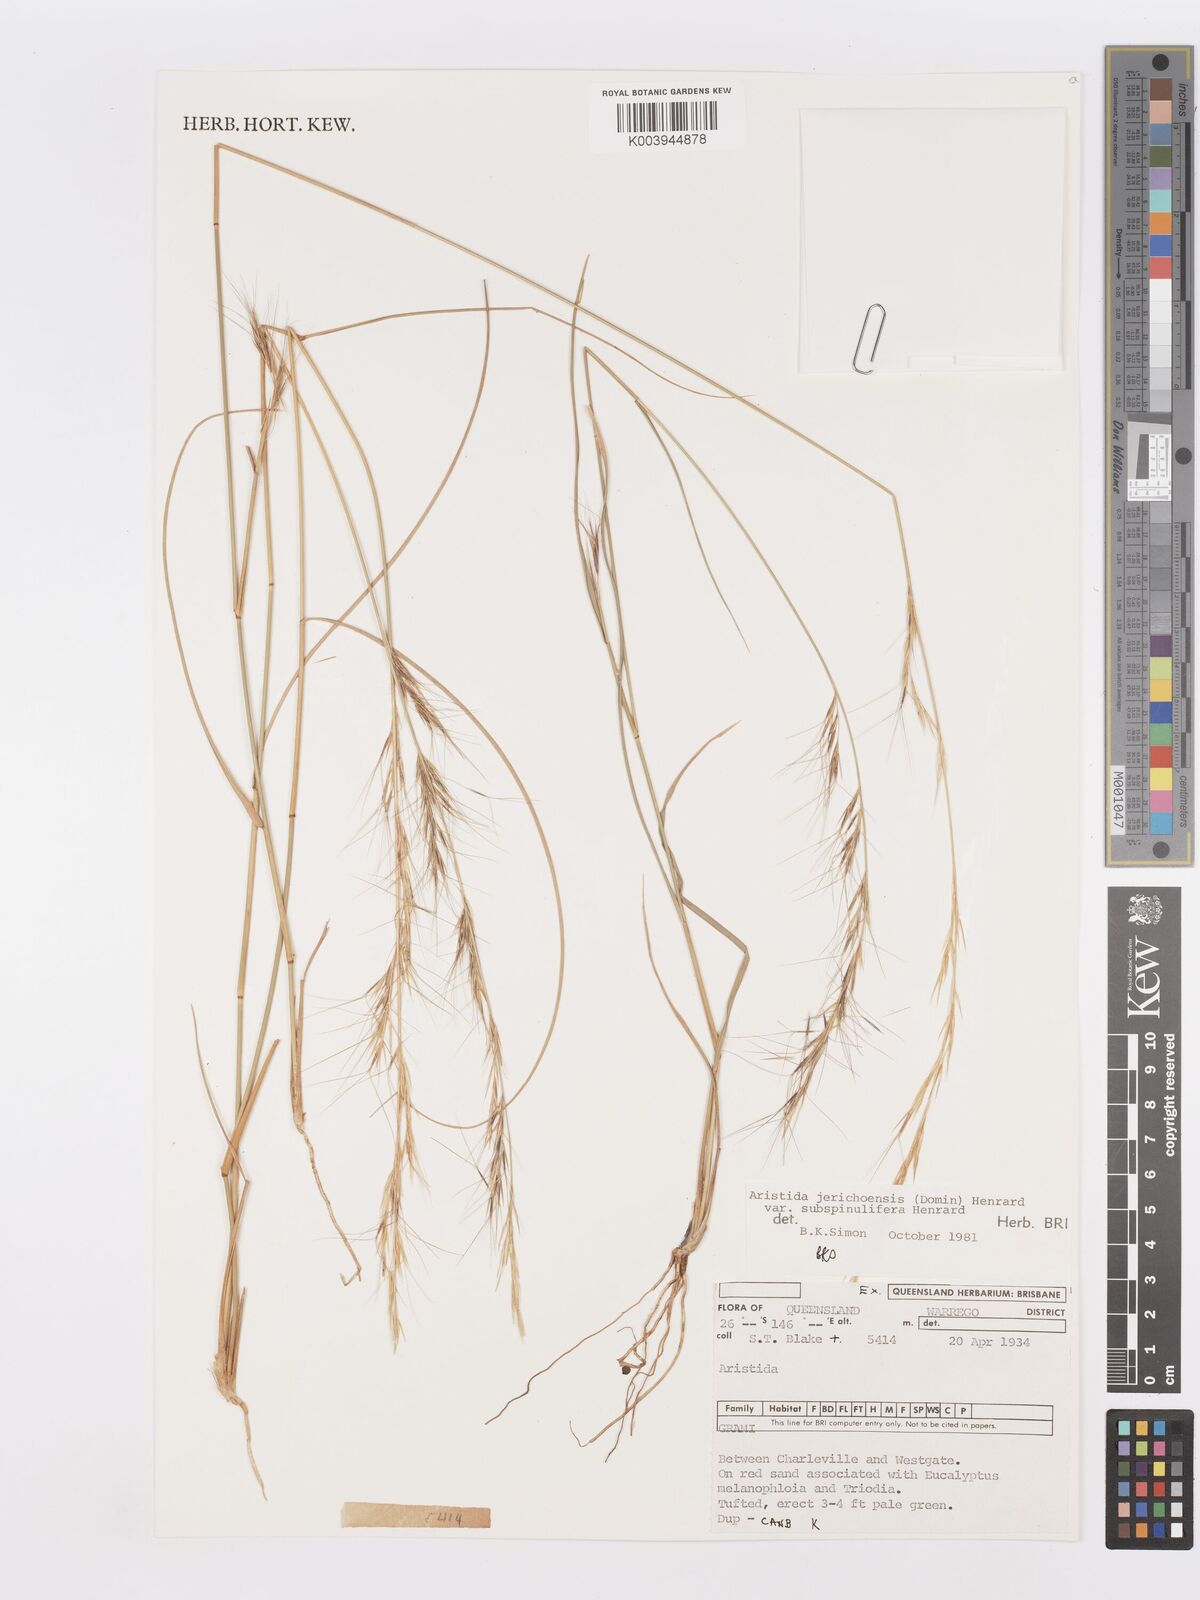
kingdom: Plantae
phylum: Tracheophyta
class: Liliopsida
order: Poales
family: Poaceae
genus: Aristida
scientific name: Aristida jerichoensis
